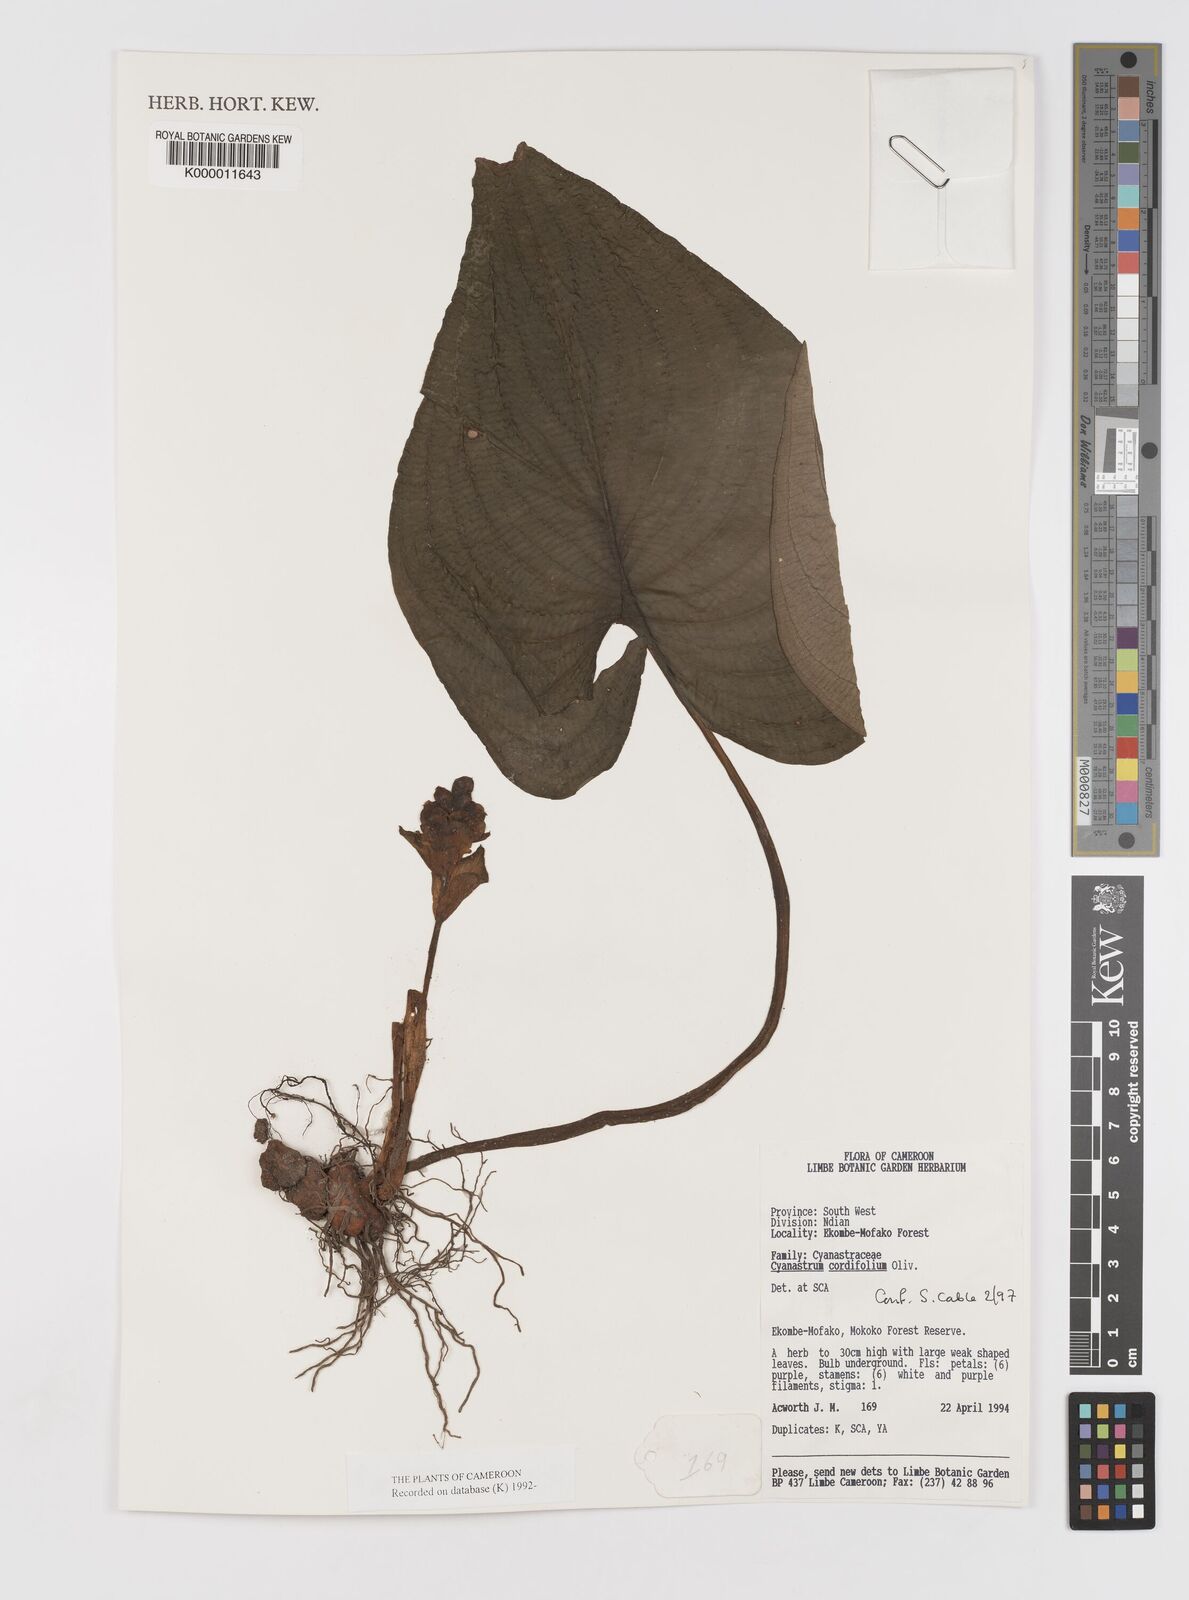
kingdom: Plantae
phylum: Tracheophyta
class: Liliopsida
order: Asparagales
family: Tecophilaeaceae
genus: Cyanastrum
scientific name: Cyanastrum cordifolium
